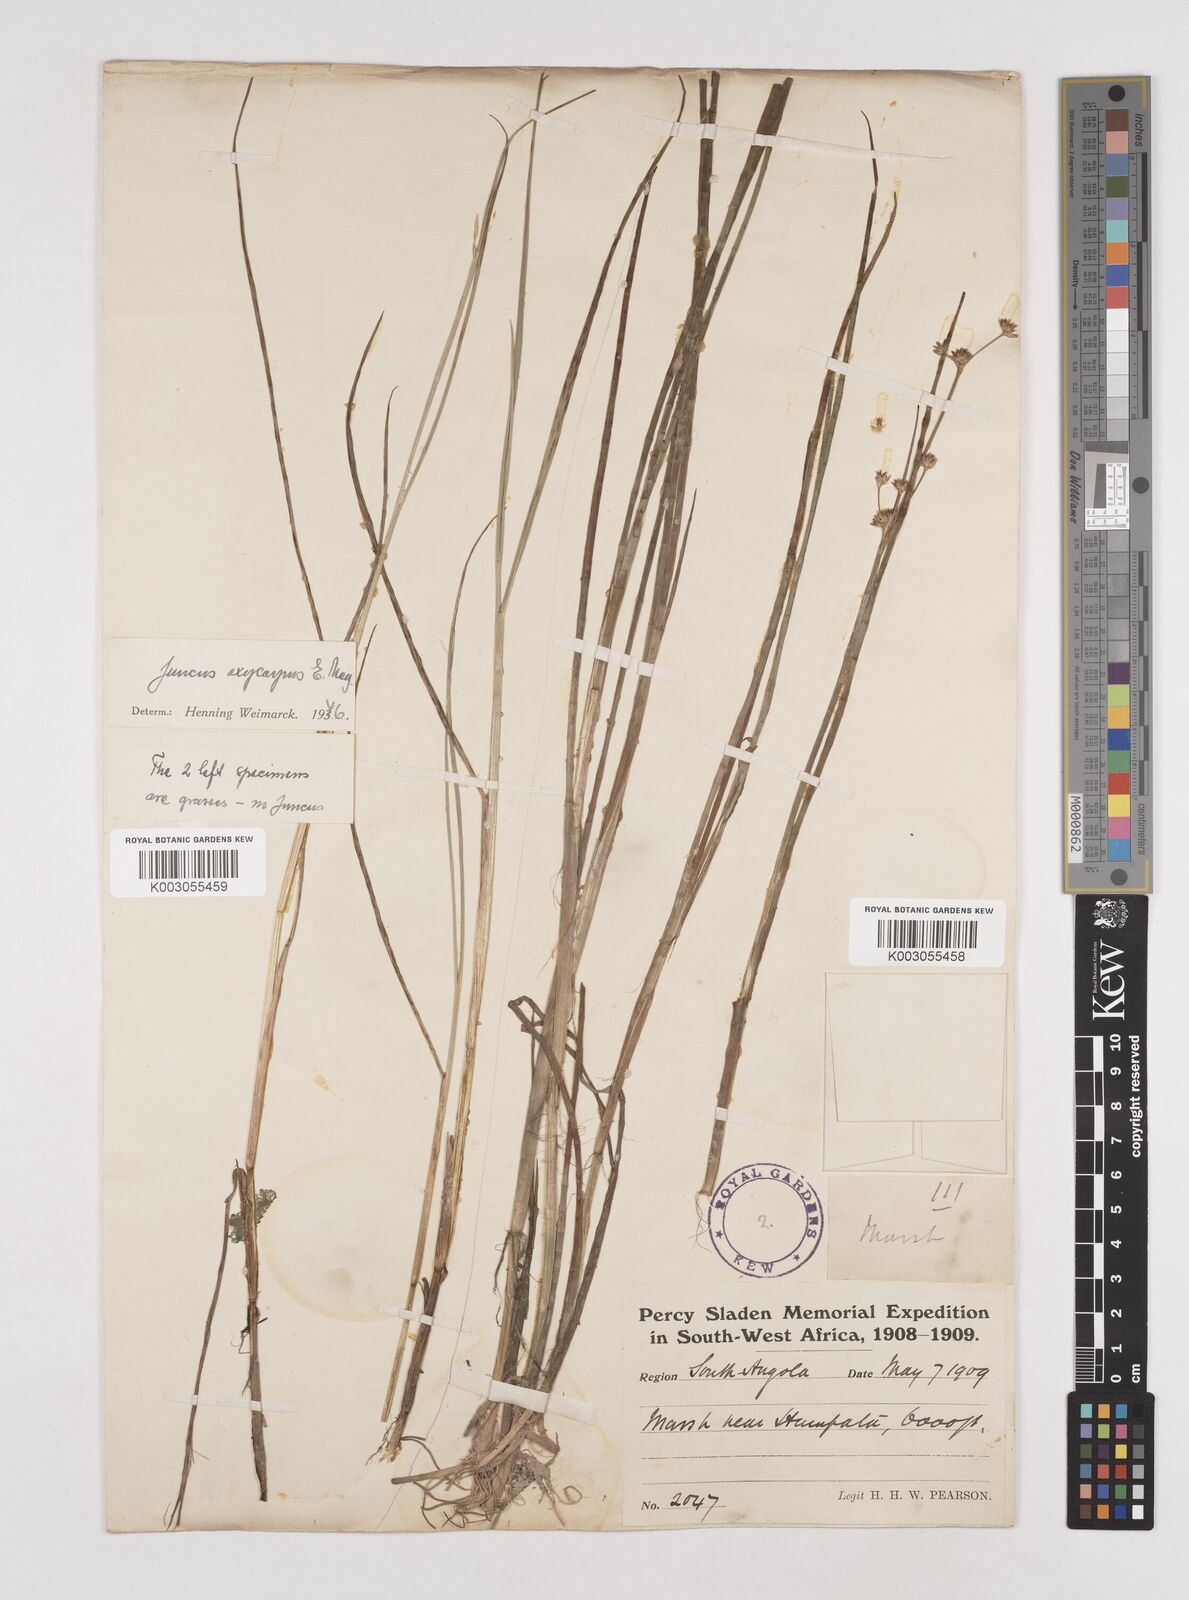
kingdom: Plantae
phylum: Tracheophyta
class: Liliopsida
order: Poales
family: Juncaceae
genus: Juncus
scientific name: Juncus oxycarpus
